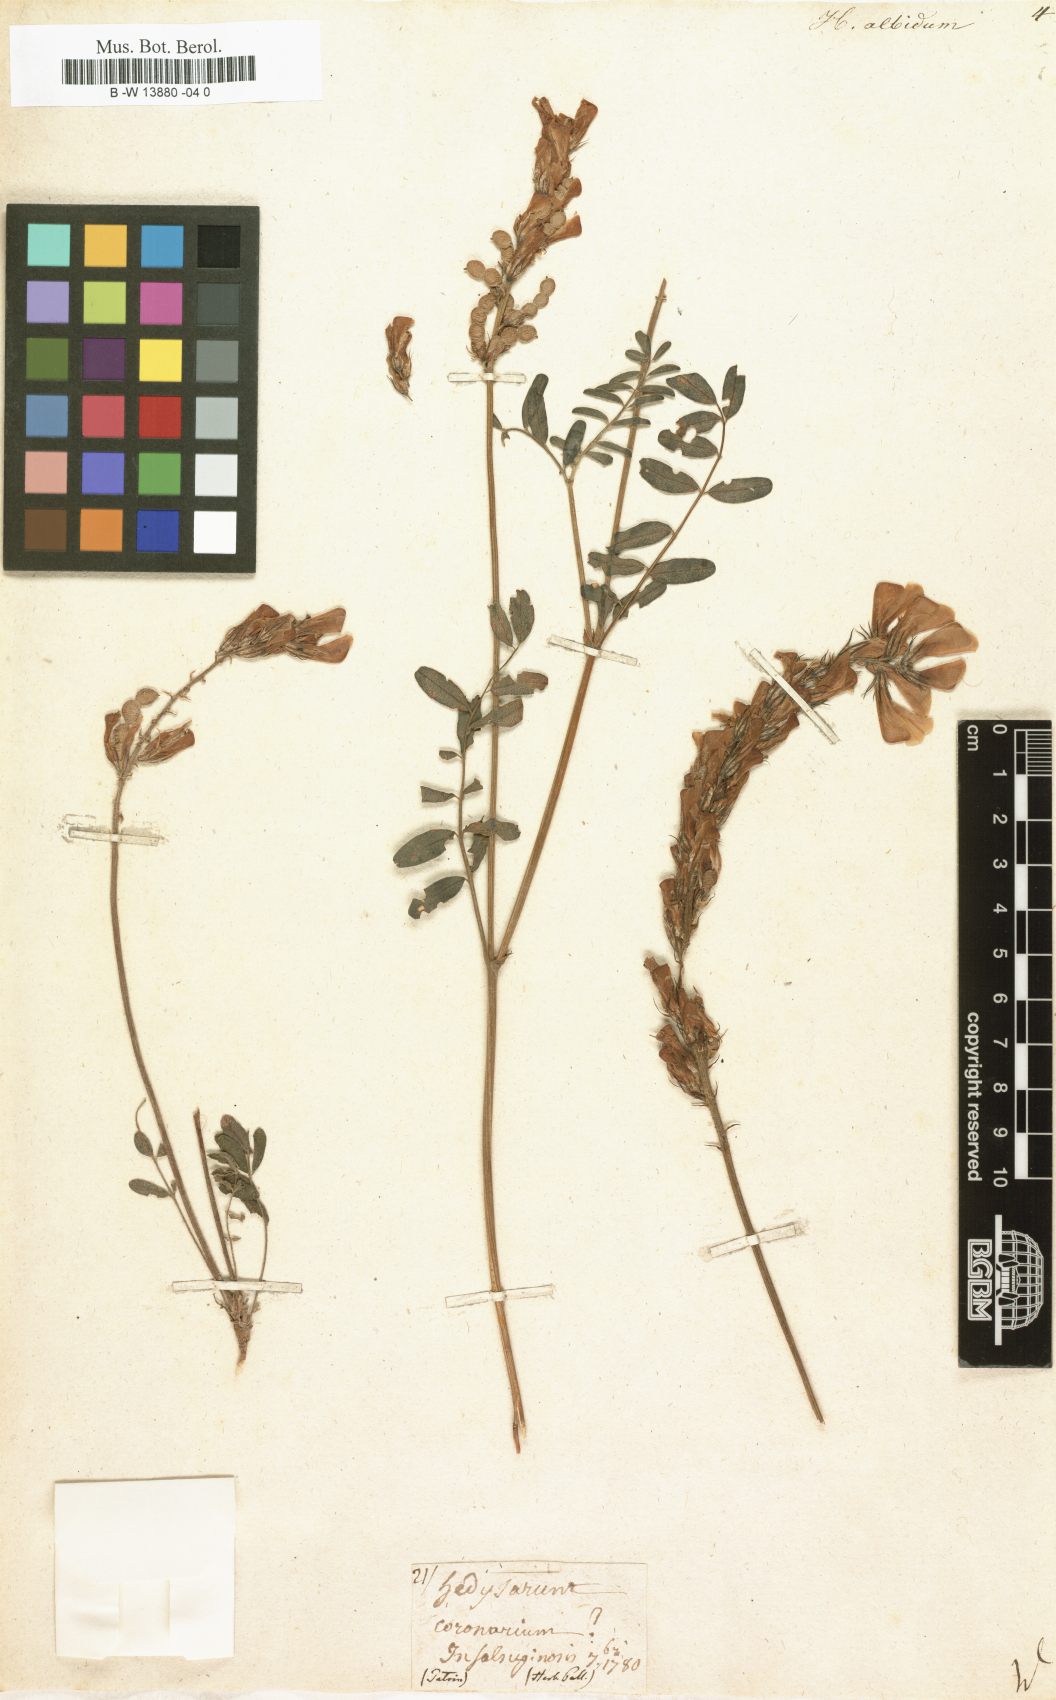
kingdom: Plantae
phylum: Tracheophyta
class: Magnoliopsida
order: Fabales
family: Fabaceae
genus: Hedysarum
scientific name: Hedysarum algidum
